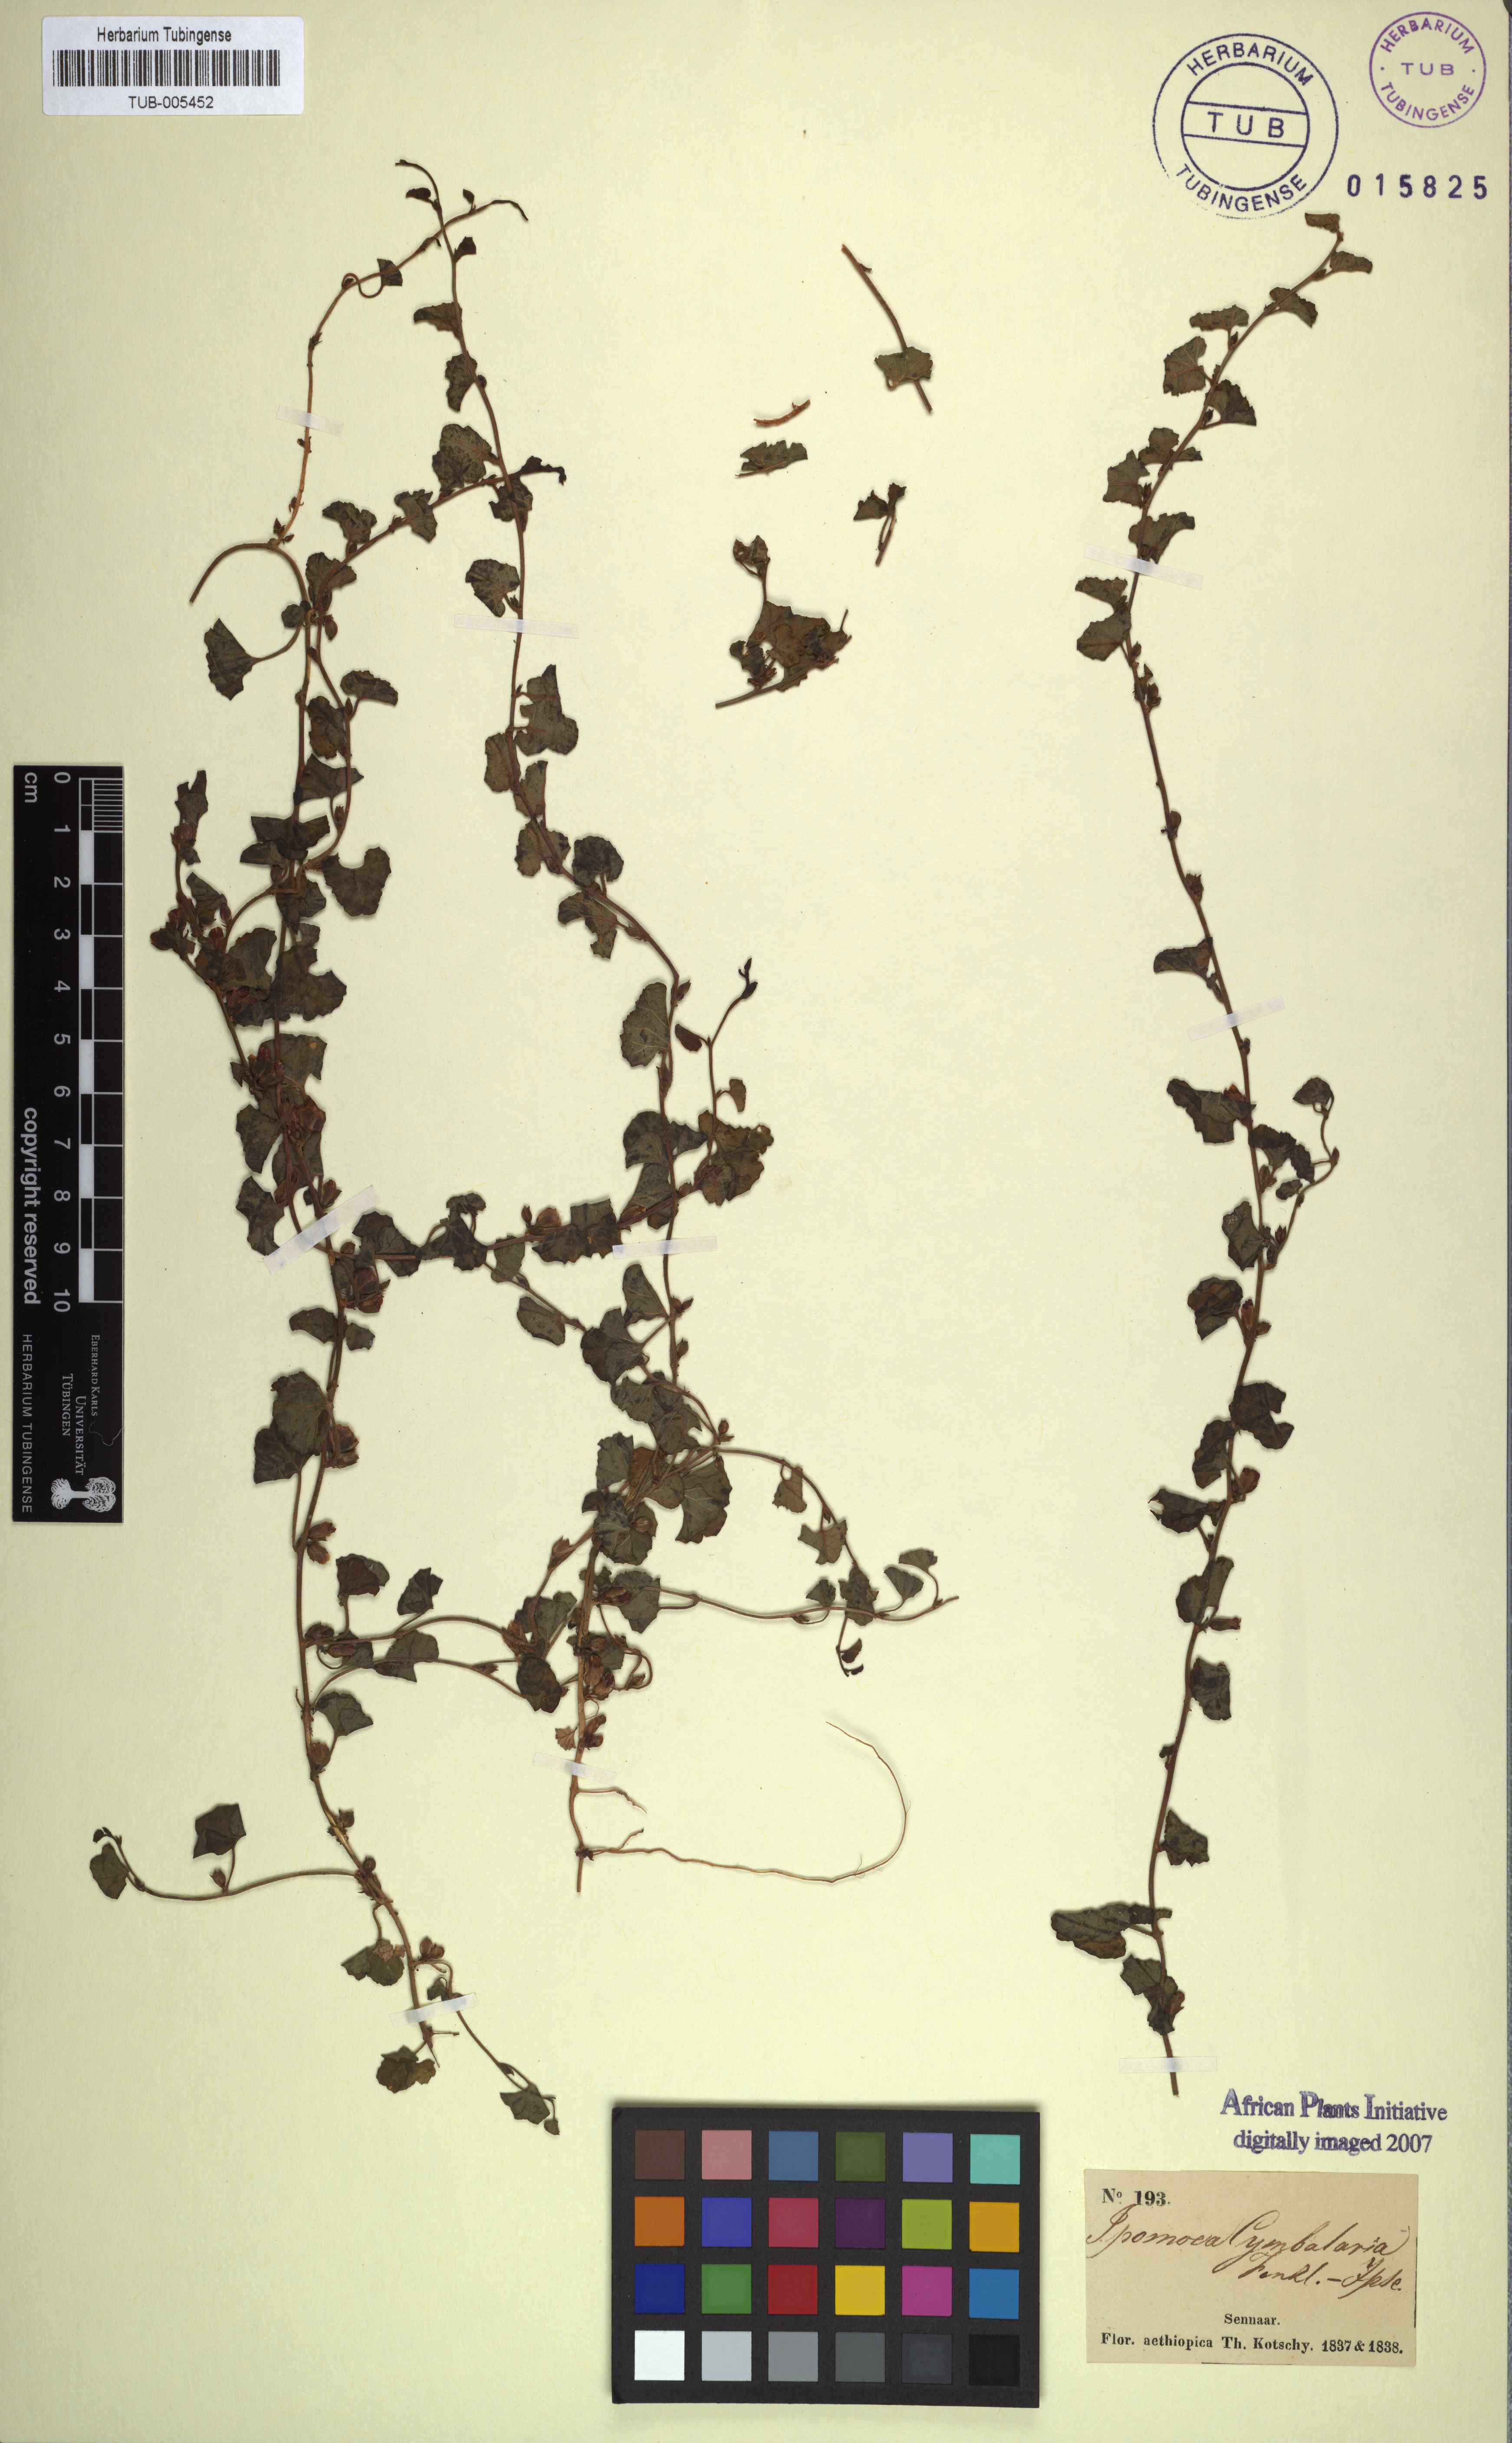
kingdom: Plantae
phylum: Tracheophyta
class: Magnoliopsida
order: Solanales
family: Convolvulaceae
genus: Merremia
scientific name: Merremia emarginata
